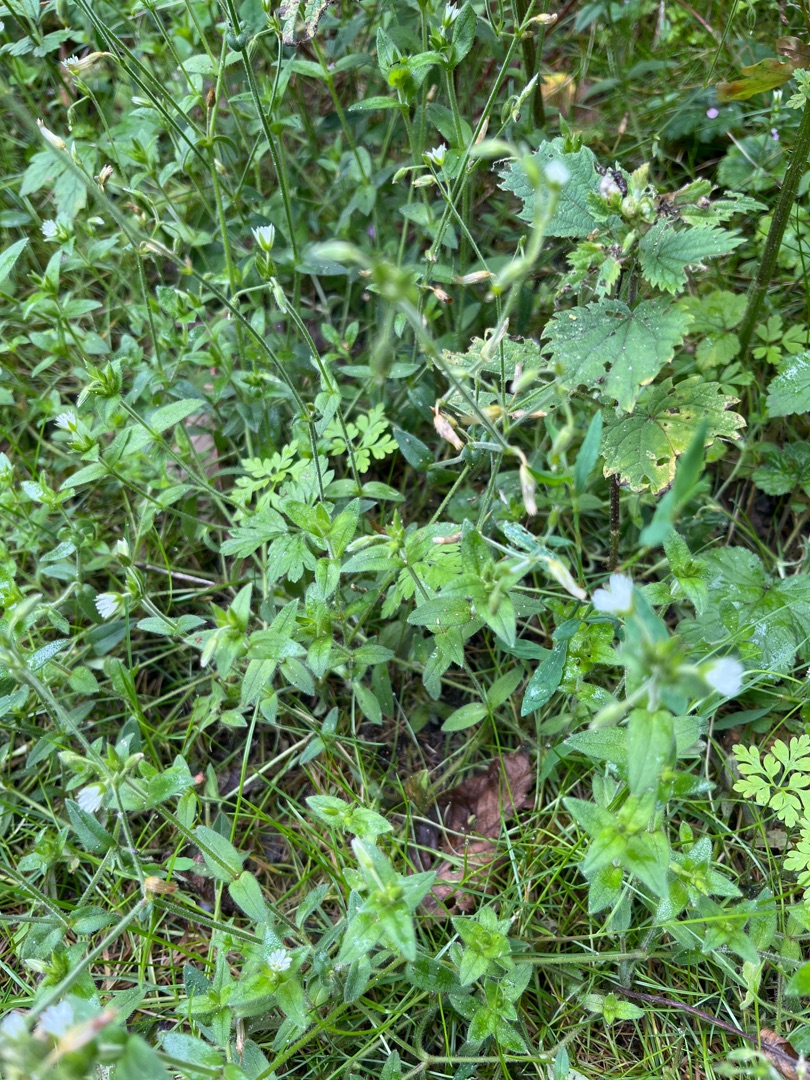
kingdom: Plantae
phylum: Tracheophyta
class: Magnoliopsida
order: Caryophyllales
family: Caryophyllaceae
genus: Cerastium
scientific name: Cerastium fontanum
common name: Almindelig hønsetarm
